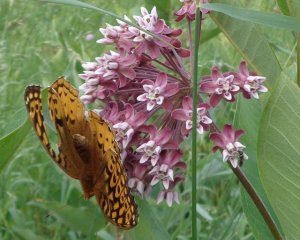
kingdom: Animalia
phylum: Arthropoda
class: Insecta
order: Lepidoptera
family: Nymphalidae
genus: Speyeria
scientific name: Speyeria cybele
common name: Great Spangled Fritillary
